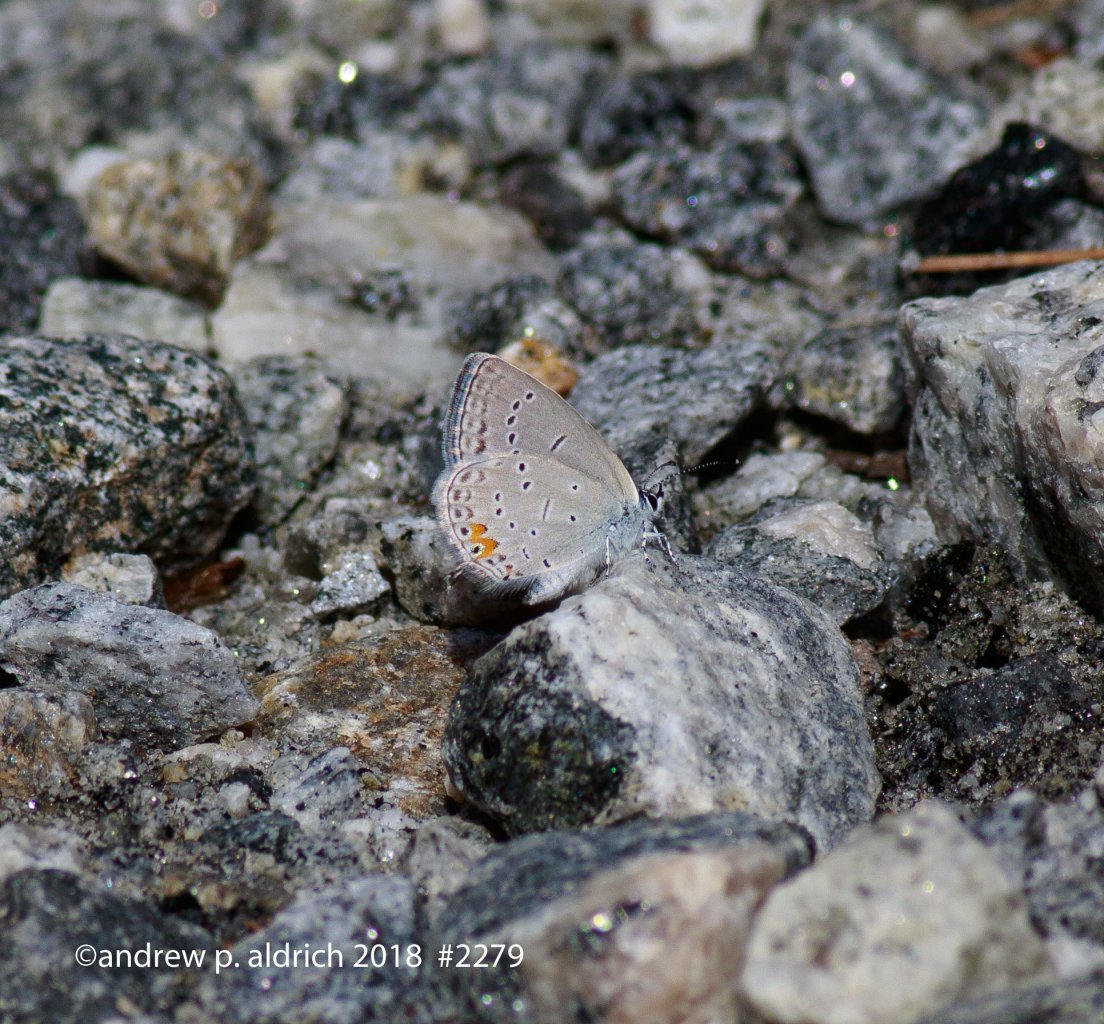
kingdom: Animalia
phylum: Arthropoda
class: Insecta
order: Lepidoptera
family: Lycaenidae
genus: Elkalyce
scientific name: Elkalyce comyntas
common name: Eastern Tailed-Blue
